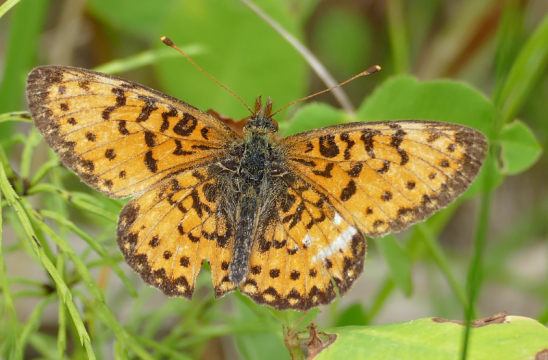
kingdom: Animalia
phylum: Arthropoda
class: Insecta
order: Lepidoptera
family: Nymphalidae
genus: Boloria
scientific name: Boloria selene
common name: Silver-bordered Fritillary
